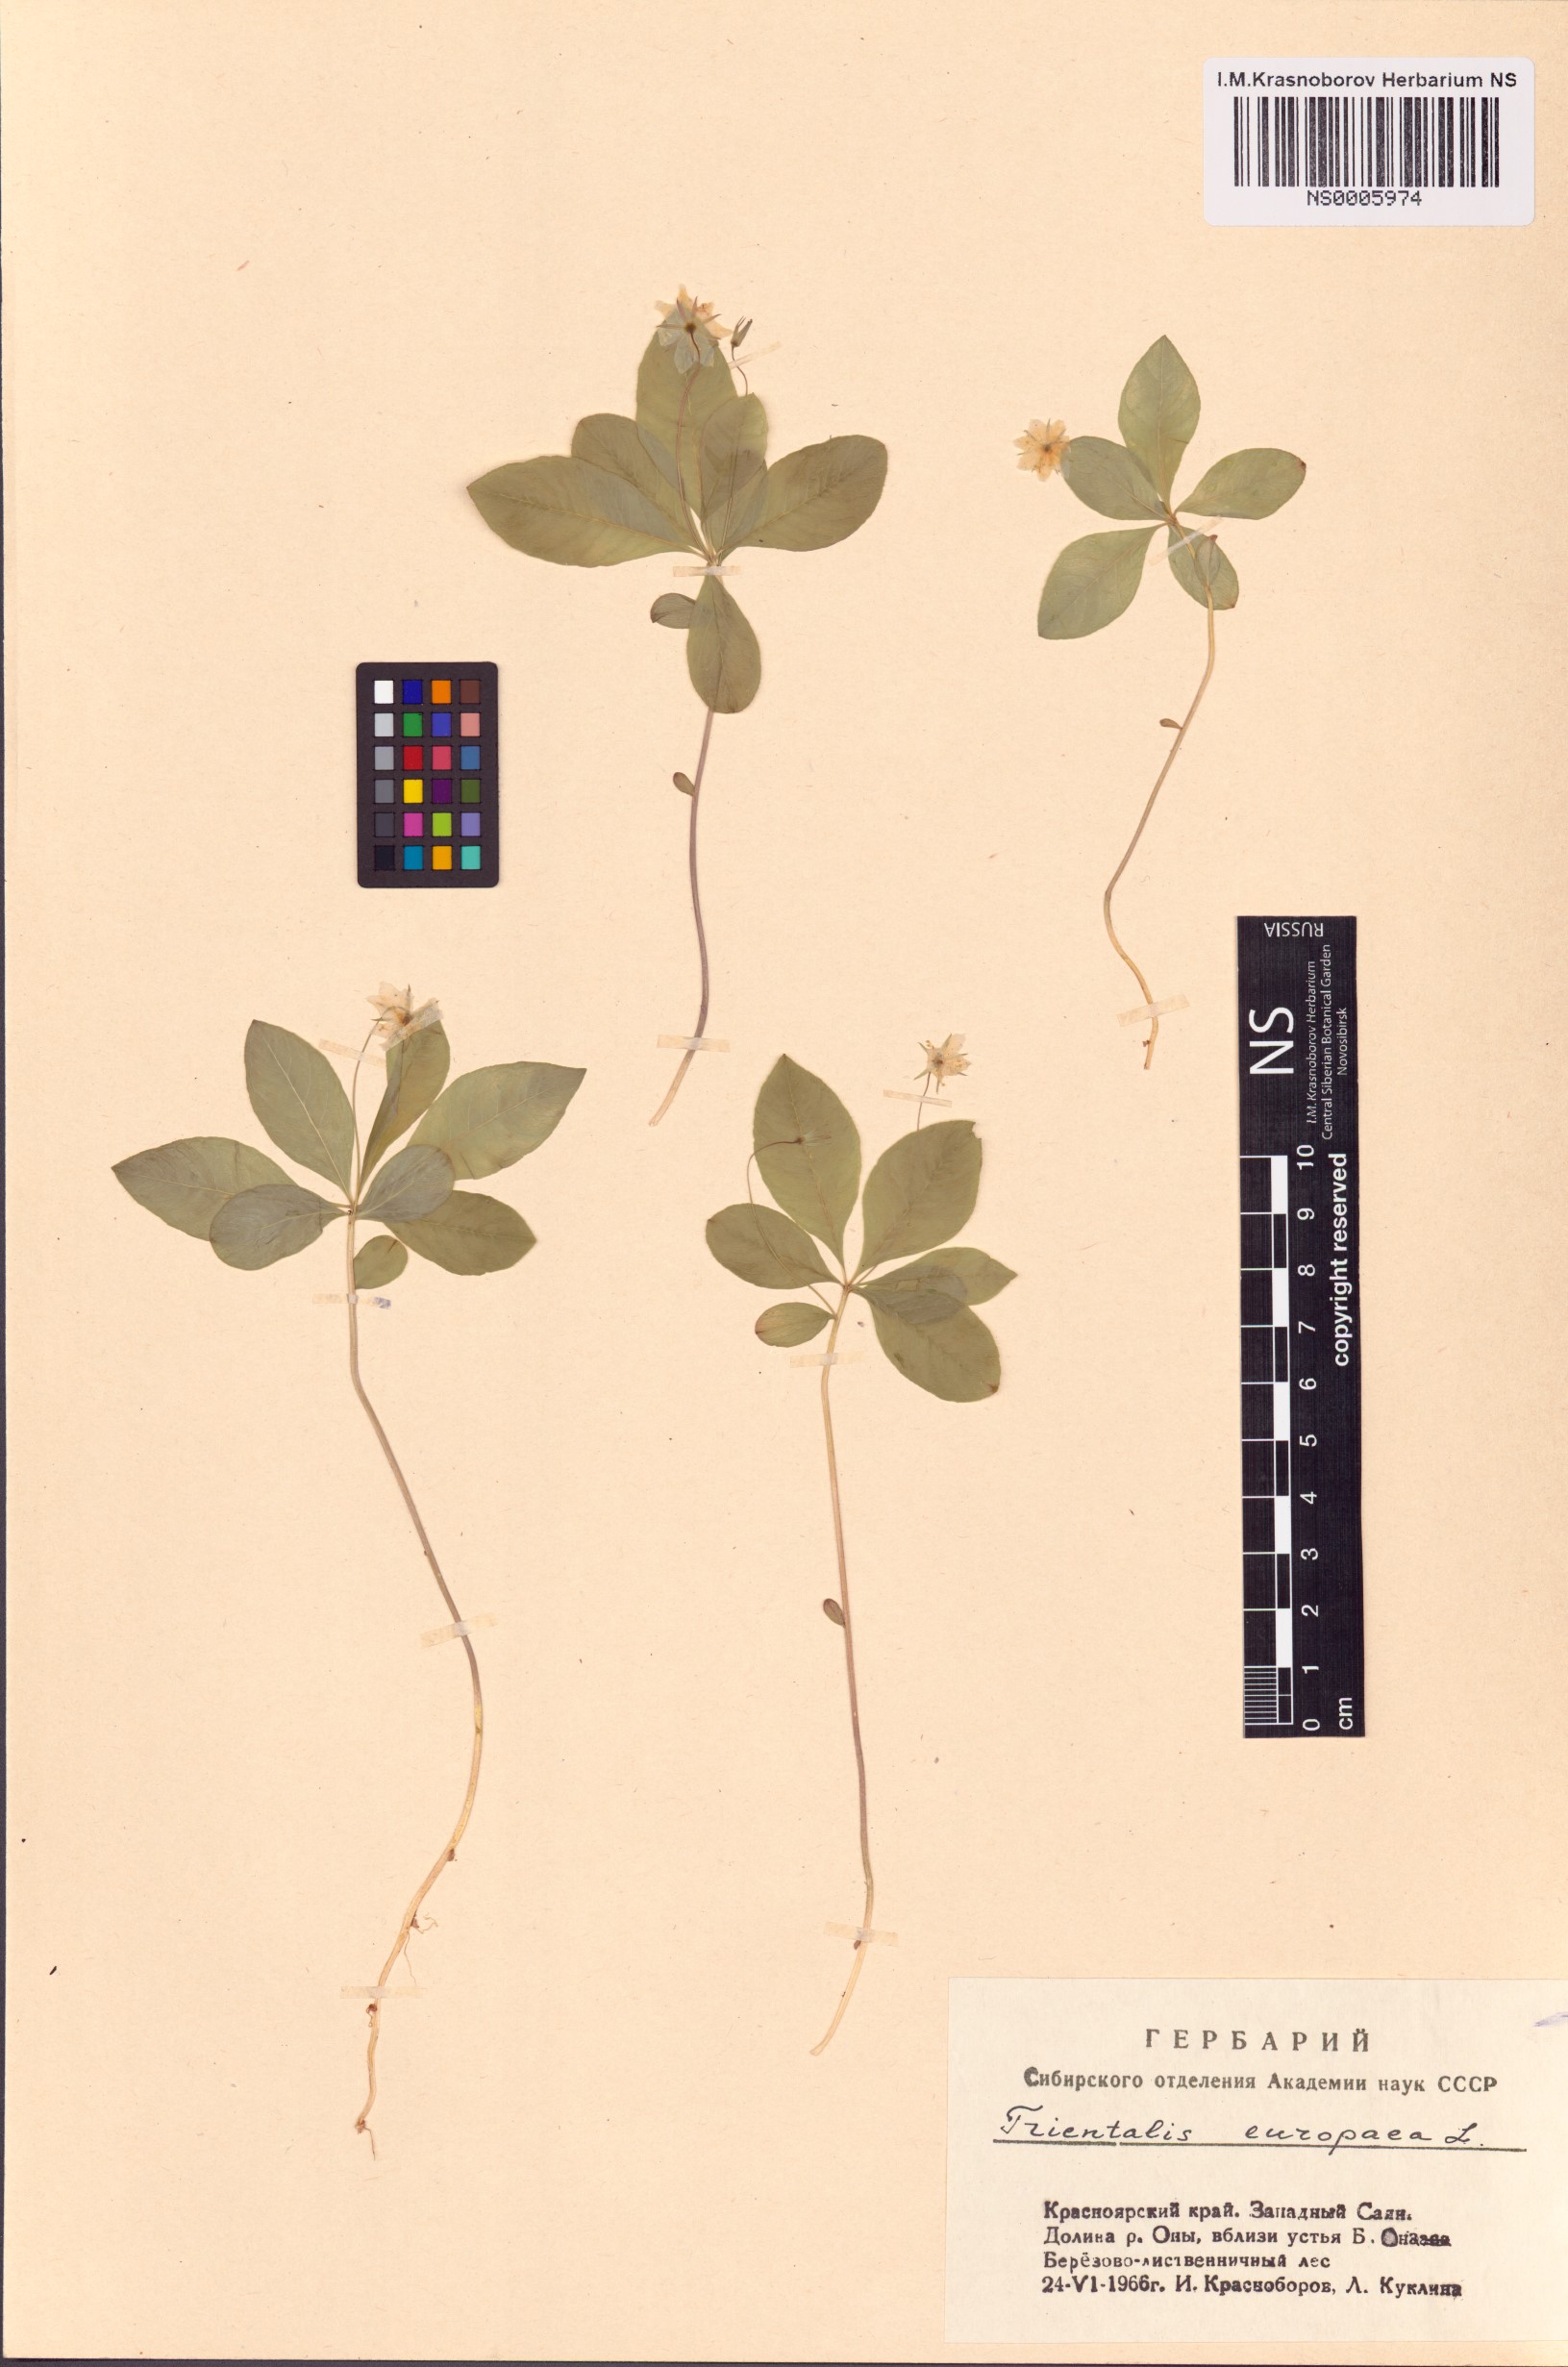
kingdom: Plantae
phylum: Tracheophyta
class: Magnoliopsida
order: Ericales
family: Primulaceae
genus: Lysimachia
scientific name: Lysimachia europaea
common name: Arctic starflower
